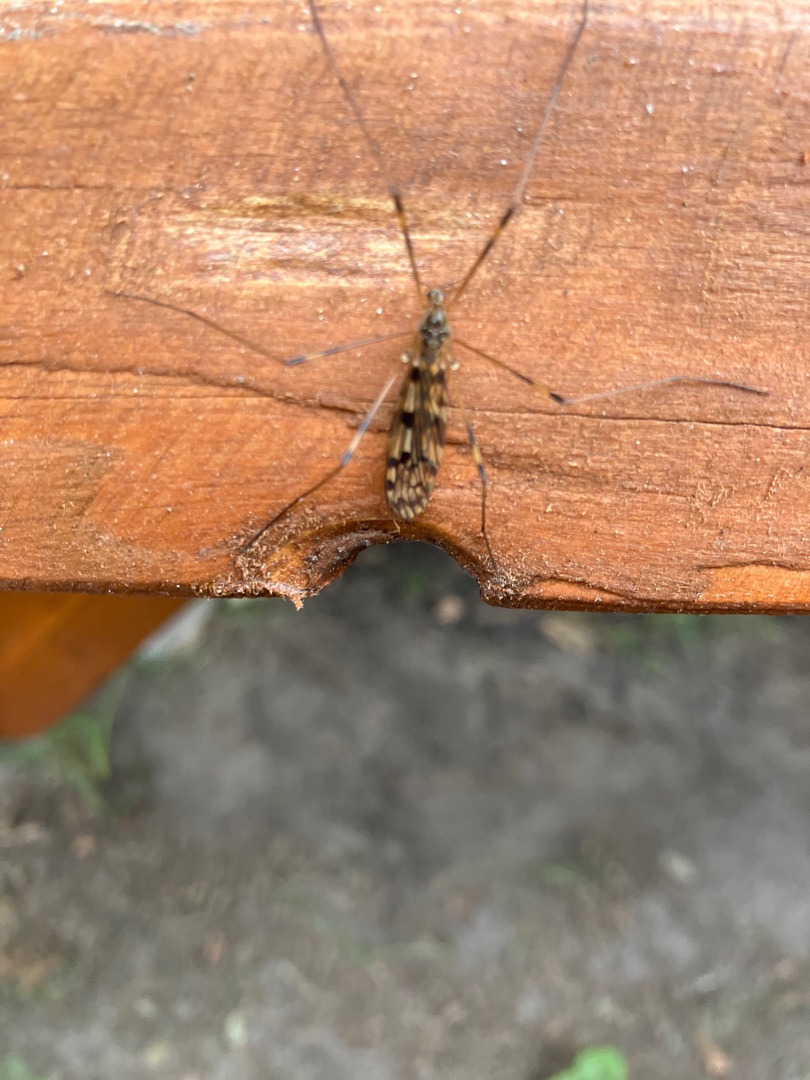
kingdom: Animalia
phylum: Arthropoda
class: Insecta
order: Diptera
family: Limoniidae
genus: Metalimnobia
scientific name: Metalimnobia quadrimaculata
